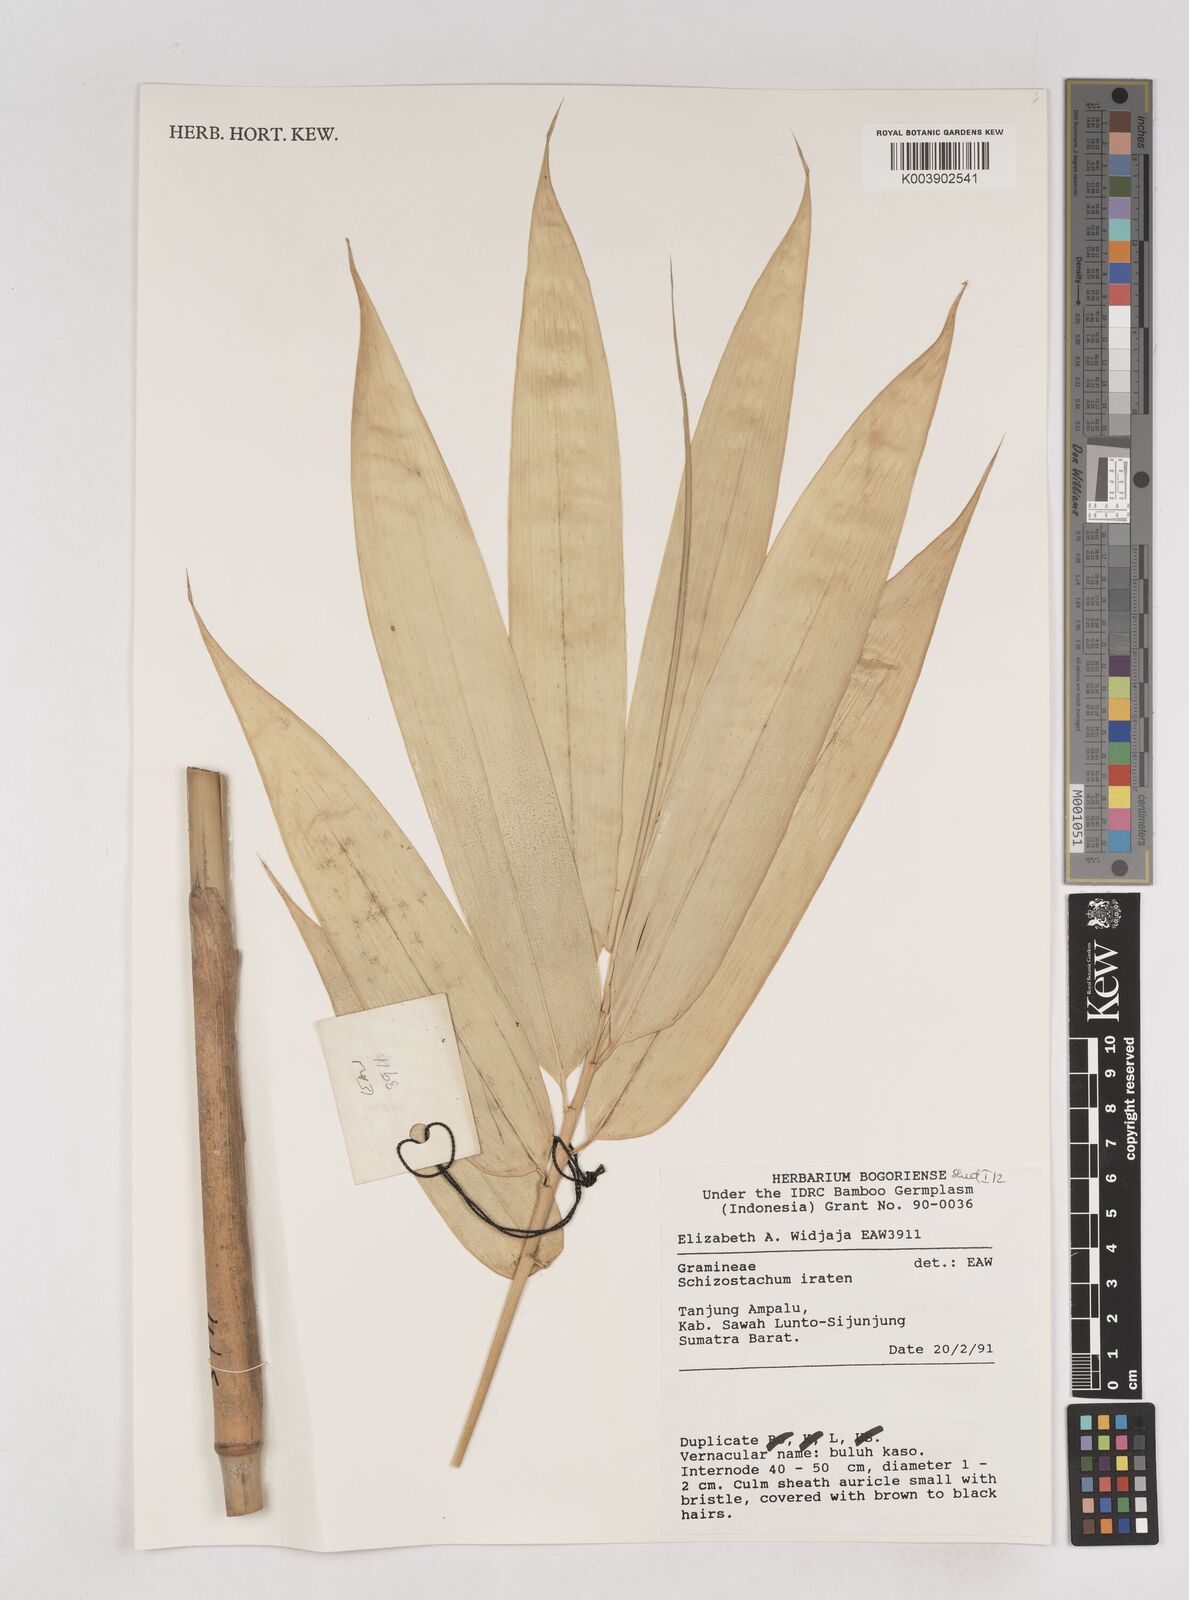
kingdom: Plantae
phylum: Tracheophyta
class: Liliopsida
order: Poales
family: Poaceae
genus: Schizostachyum
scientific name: Schizostachyum iraten
